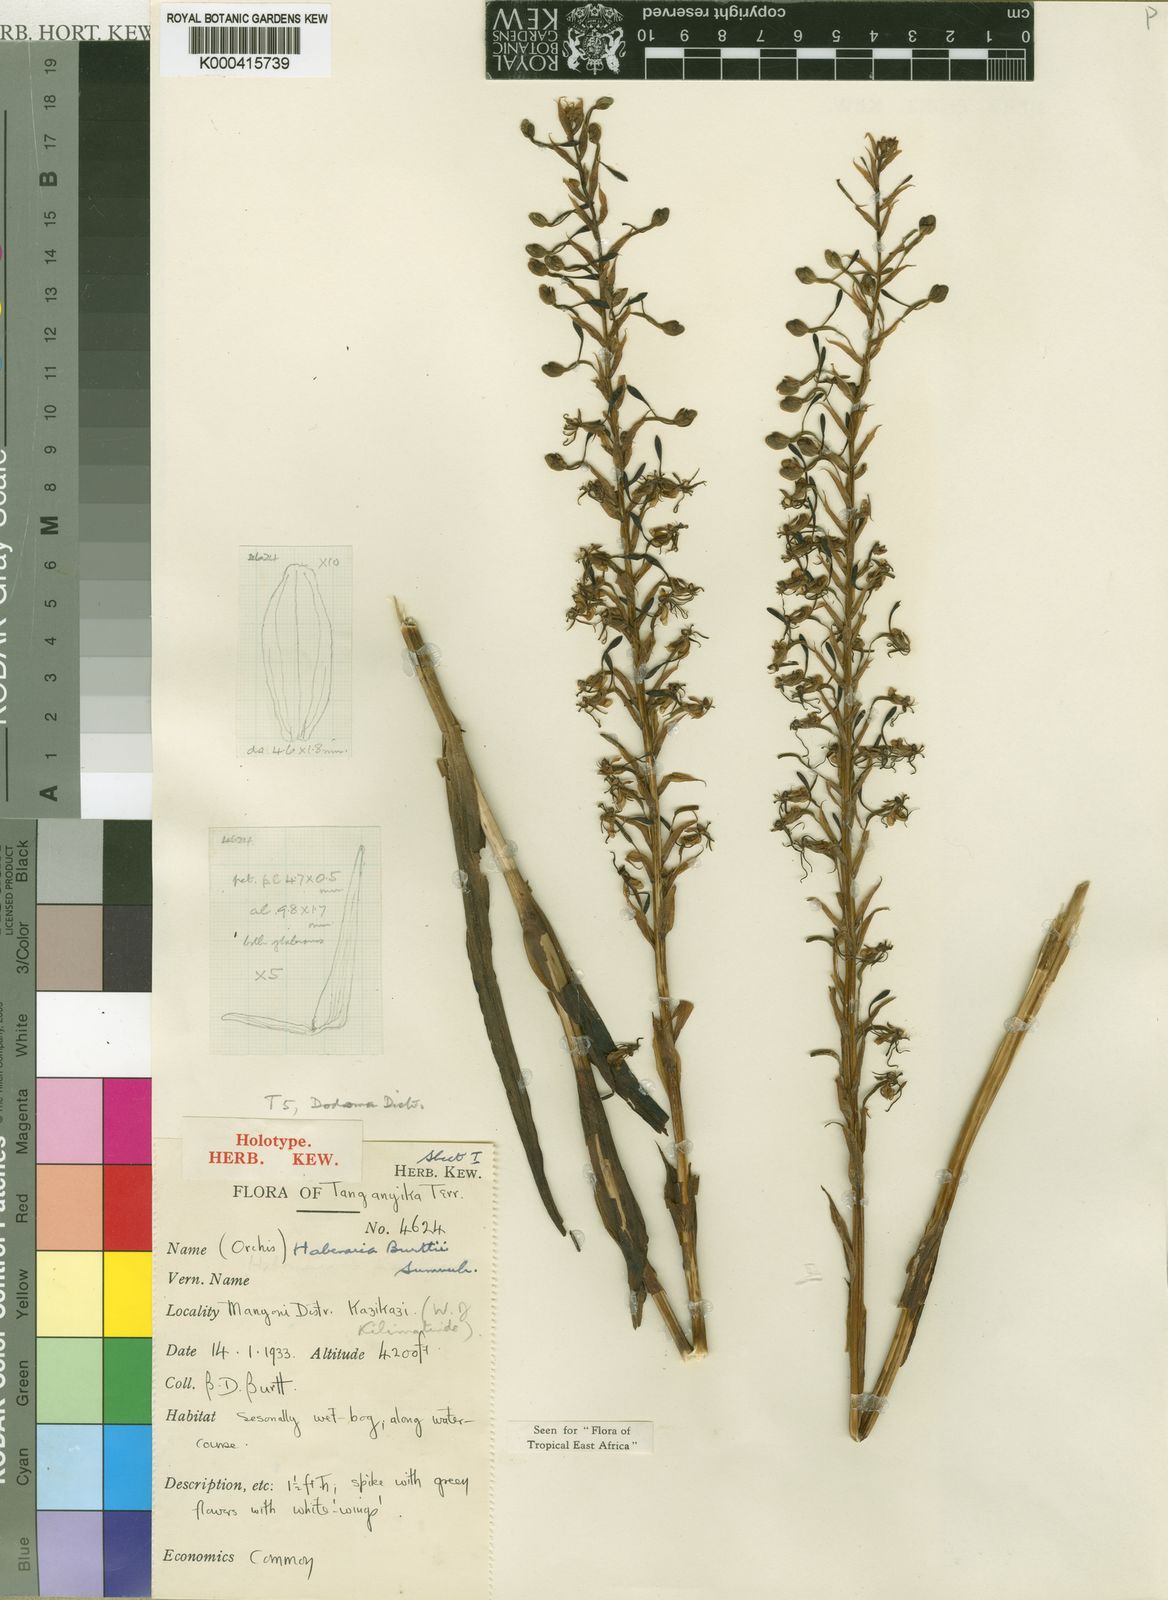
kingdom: Plantae
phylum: Tracheophyta
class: Liliopsida
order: Asparagales
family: Orchidaceae
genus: Habenaria
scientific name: Habenaria burttii
